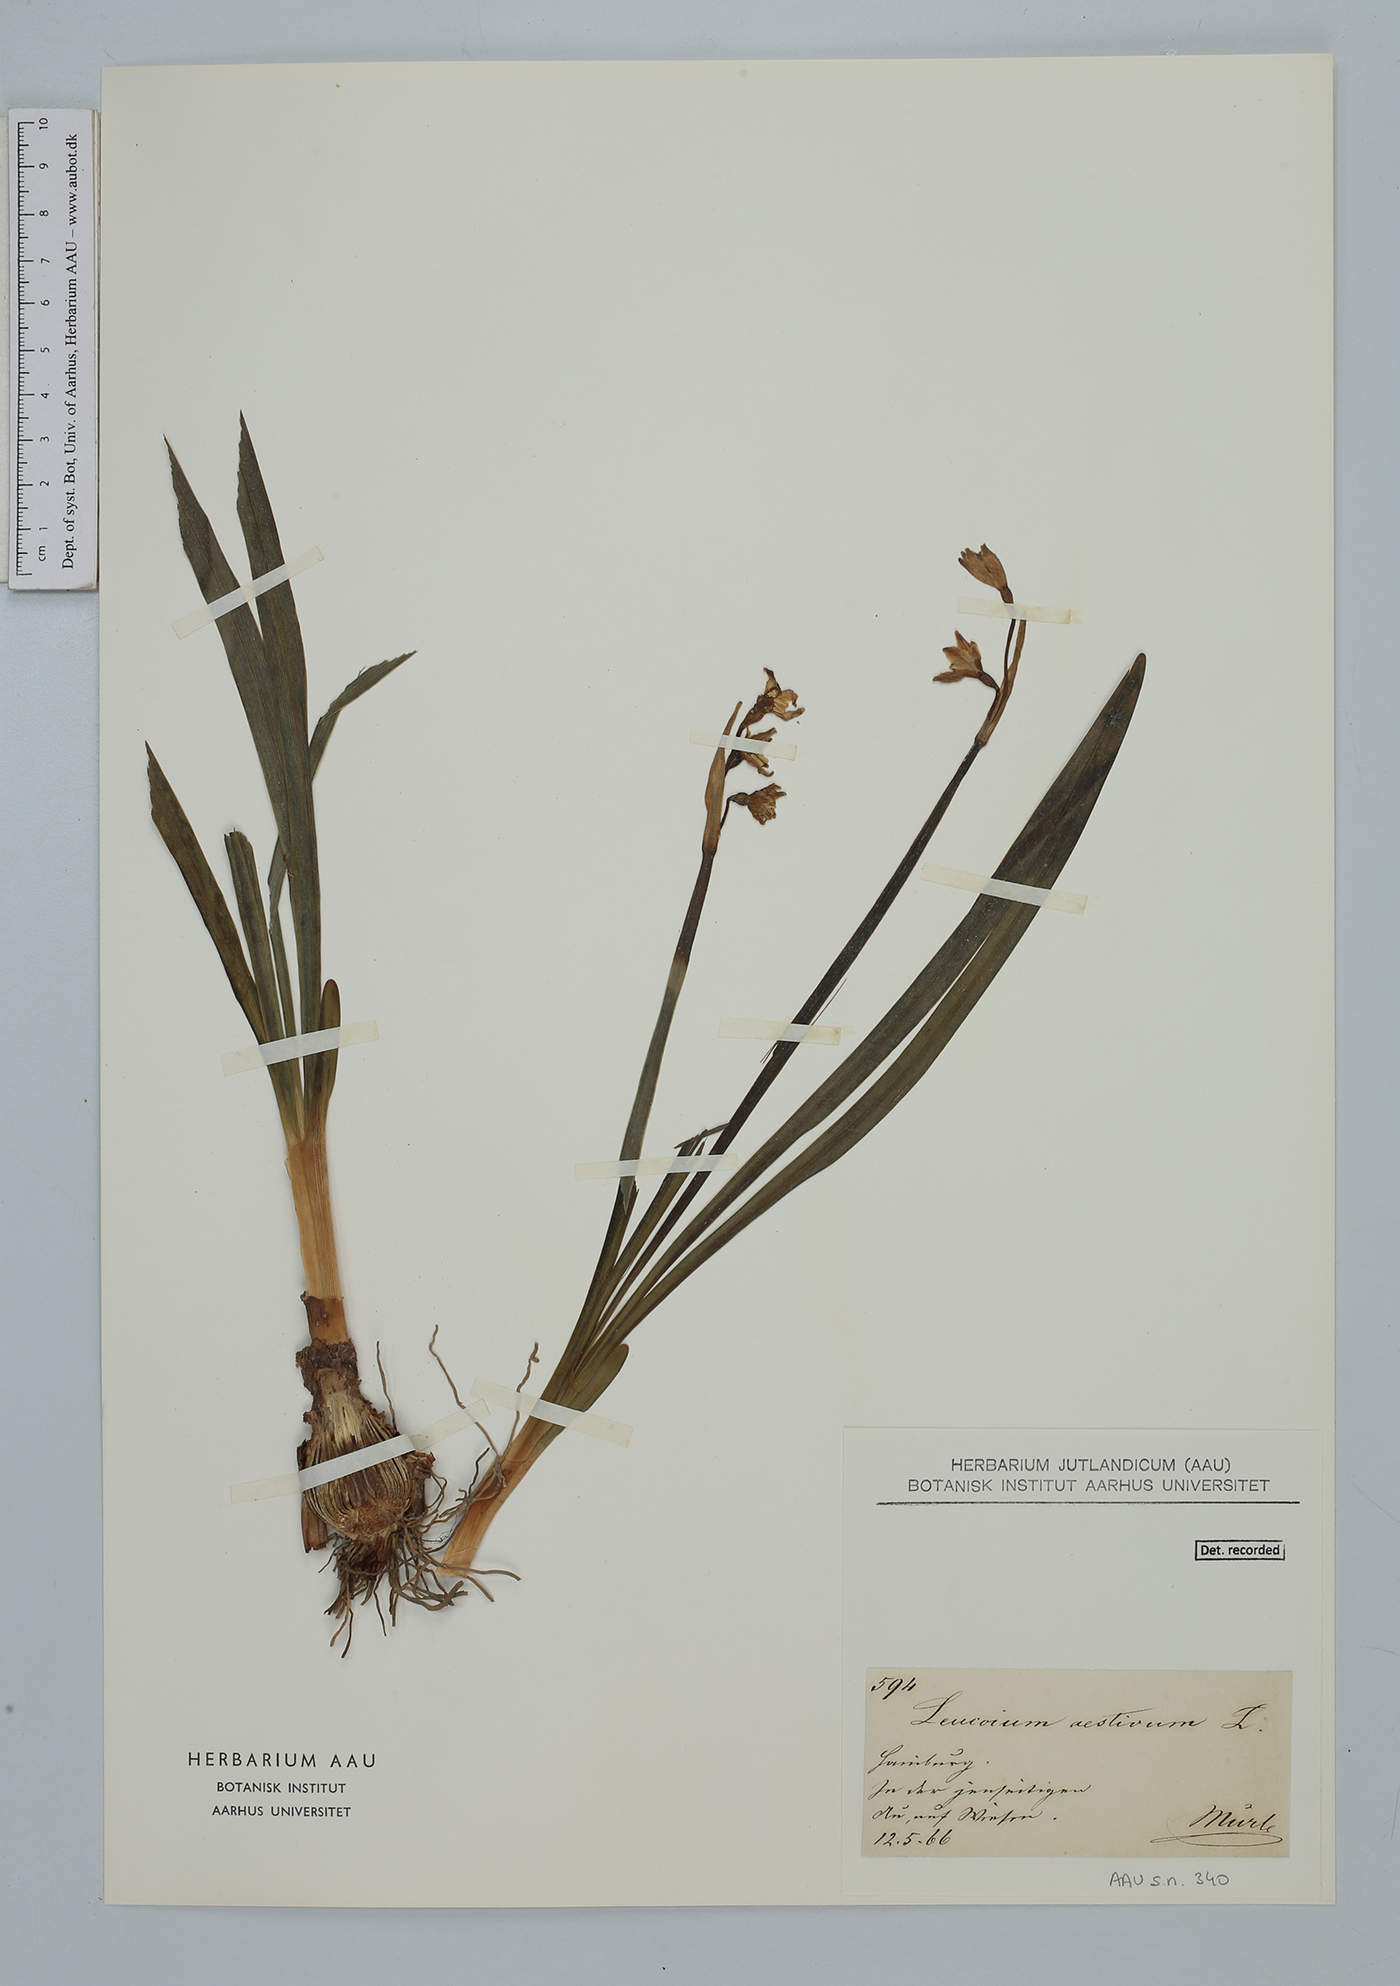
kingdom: Plantae
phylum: Tracheophyta
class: Liliopsida
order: Asparagales
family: Amaryllidaceae
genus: Leucojum
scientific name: Leucojum aestivum
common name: Summer snowflake
